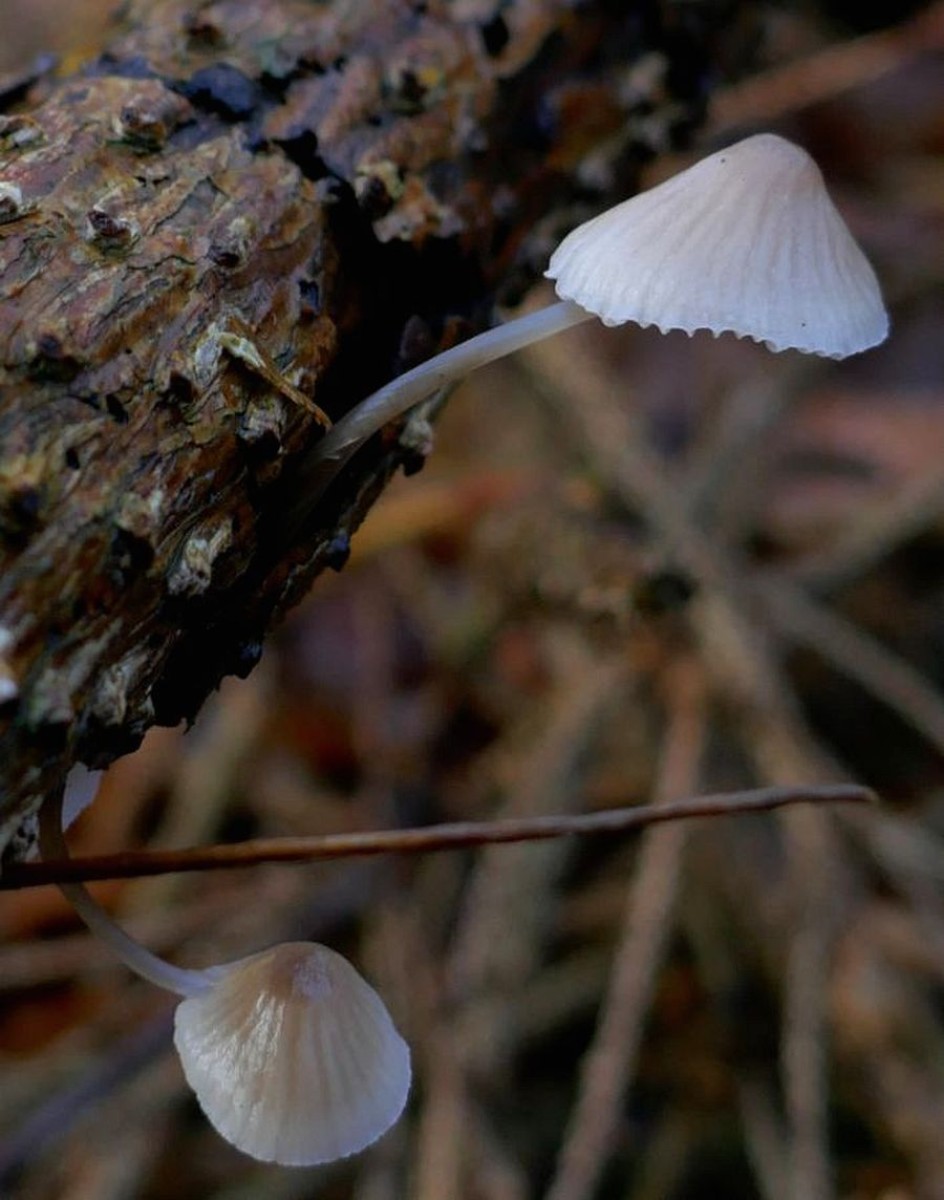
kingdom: Fungi
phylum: Basidiomycota
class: Agaricomycetes
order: Agaricales
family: Mycenaceae
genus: Mycena
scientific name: Mycena metata
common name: rødlig huesvamp
